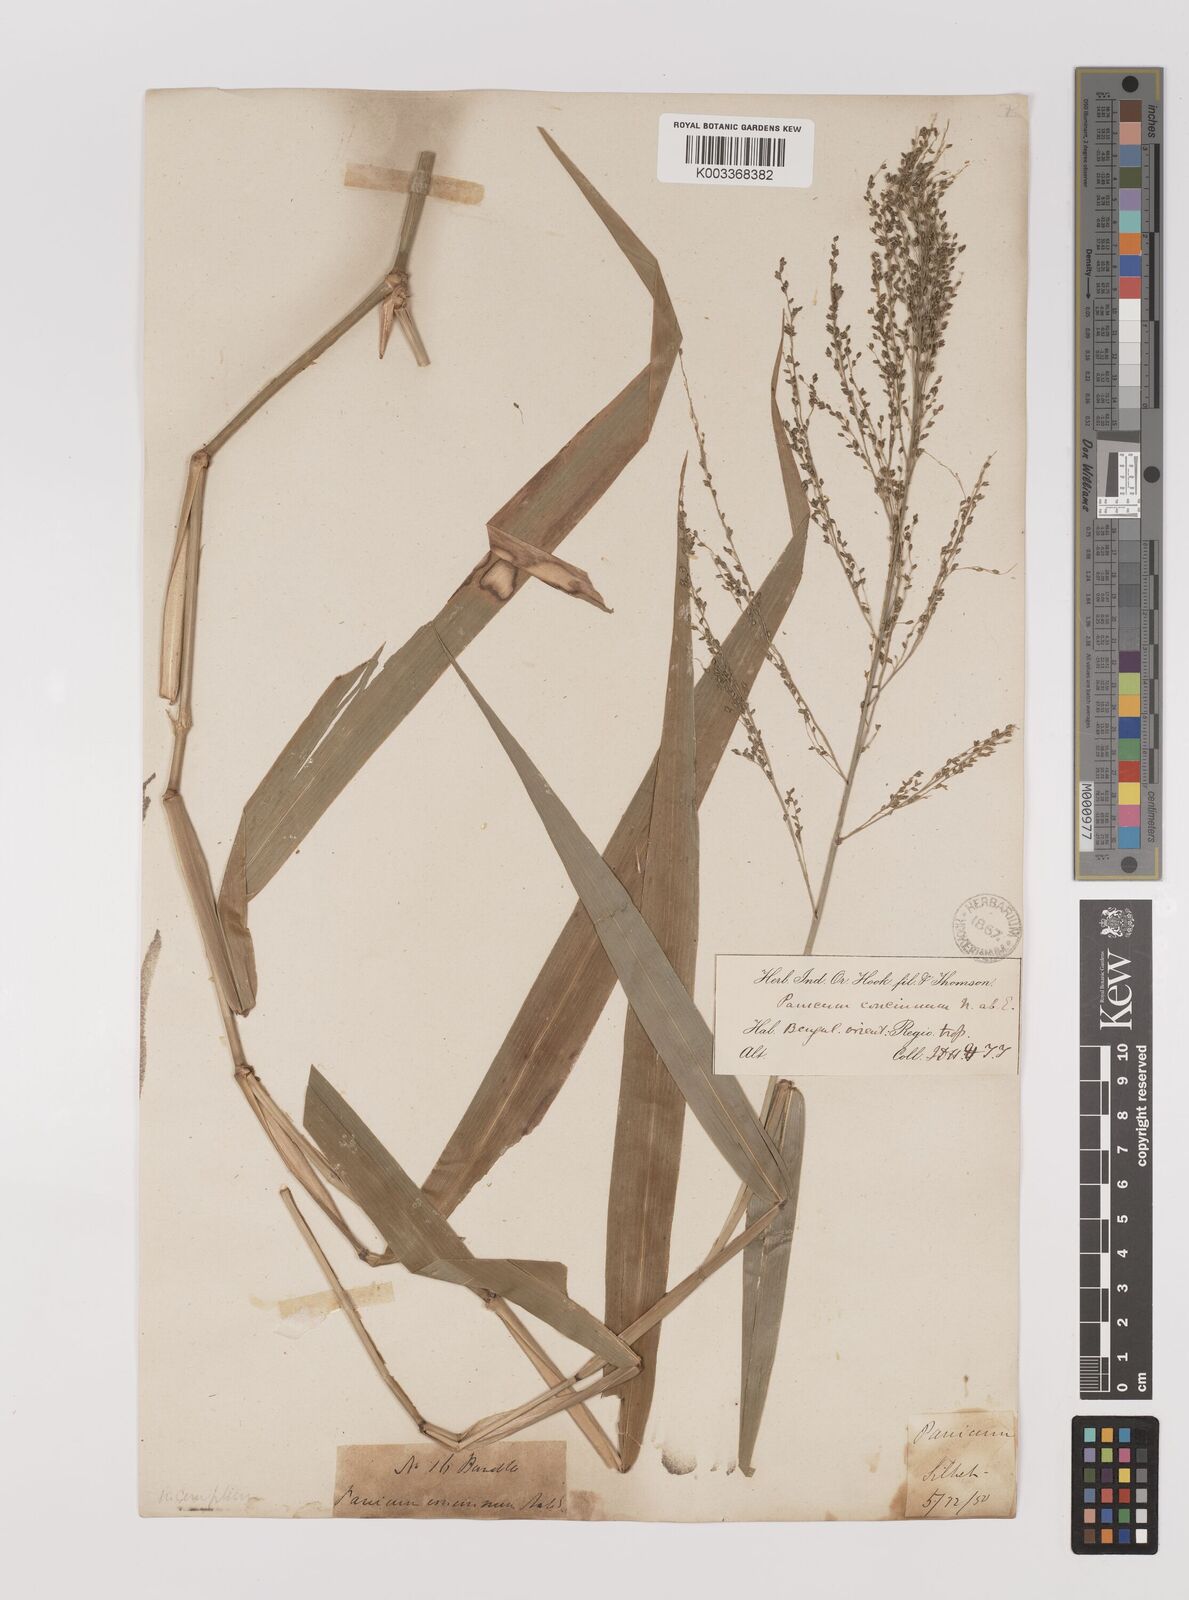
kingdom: Plantae
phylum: Tracheophyta
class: Liliopsida
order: Poales
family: Poaceae
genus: Panicum
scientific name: Panicum sarmentosum
